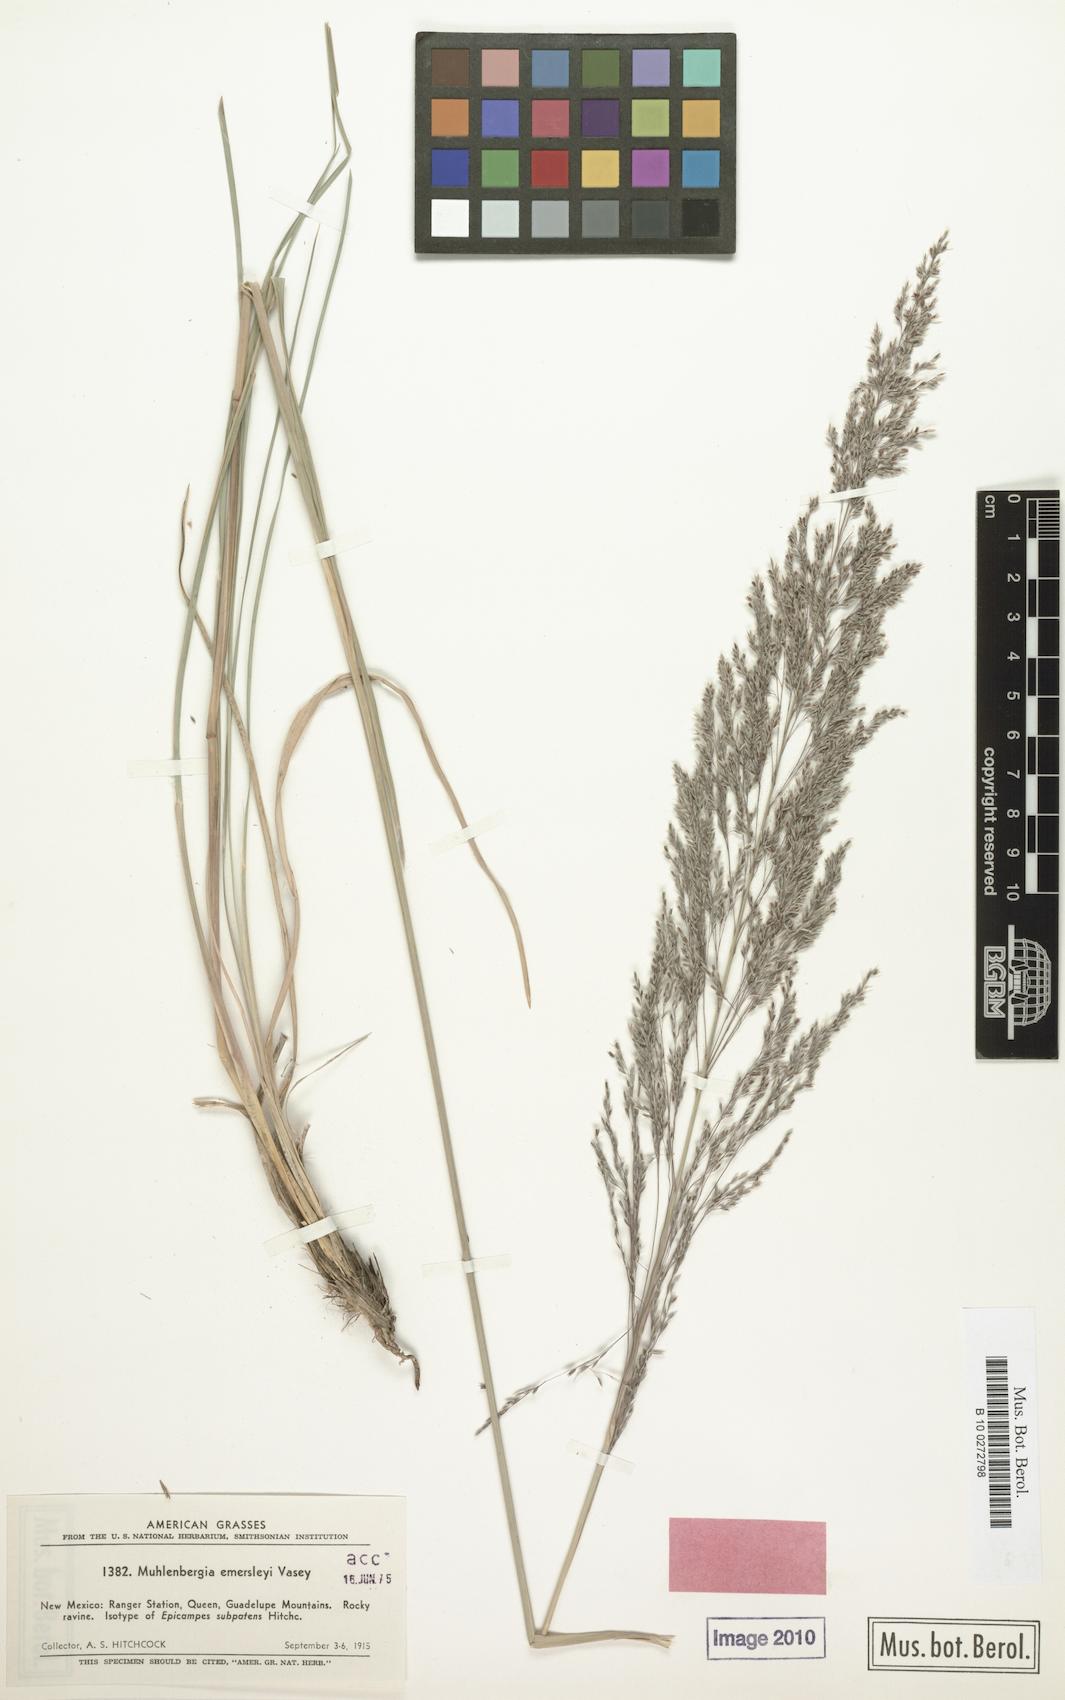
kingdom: Plantae
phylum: Tracheophyta
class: Liliopsida
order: Poales
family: Poaceae
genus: Muhlenbergia
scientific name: Muhlenbergia emersleyi
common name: Bull grass
